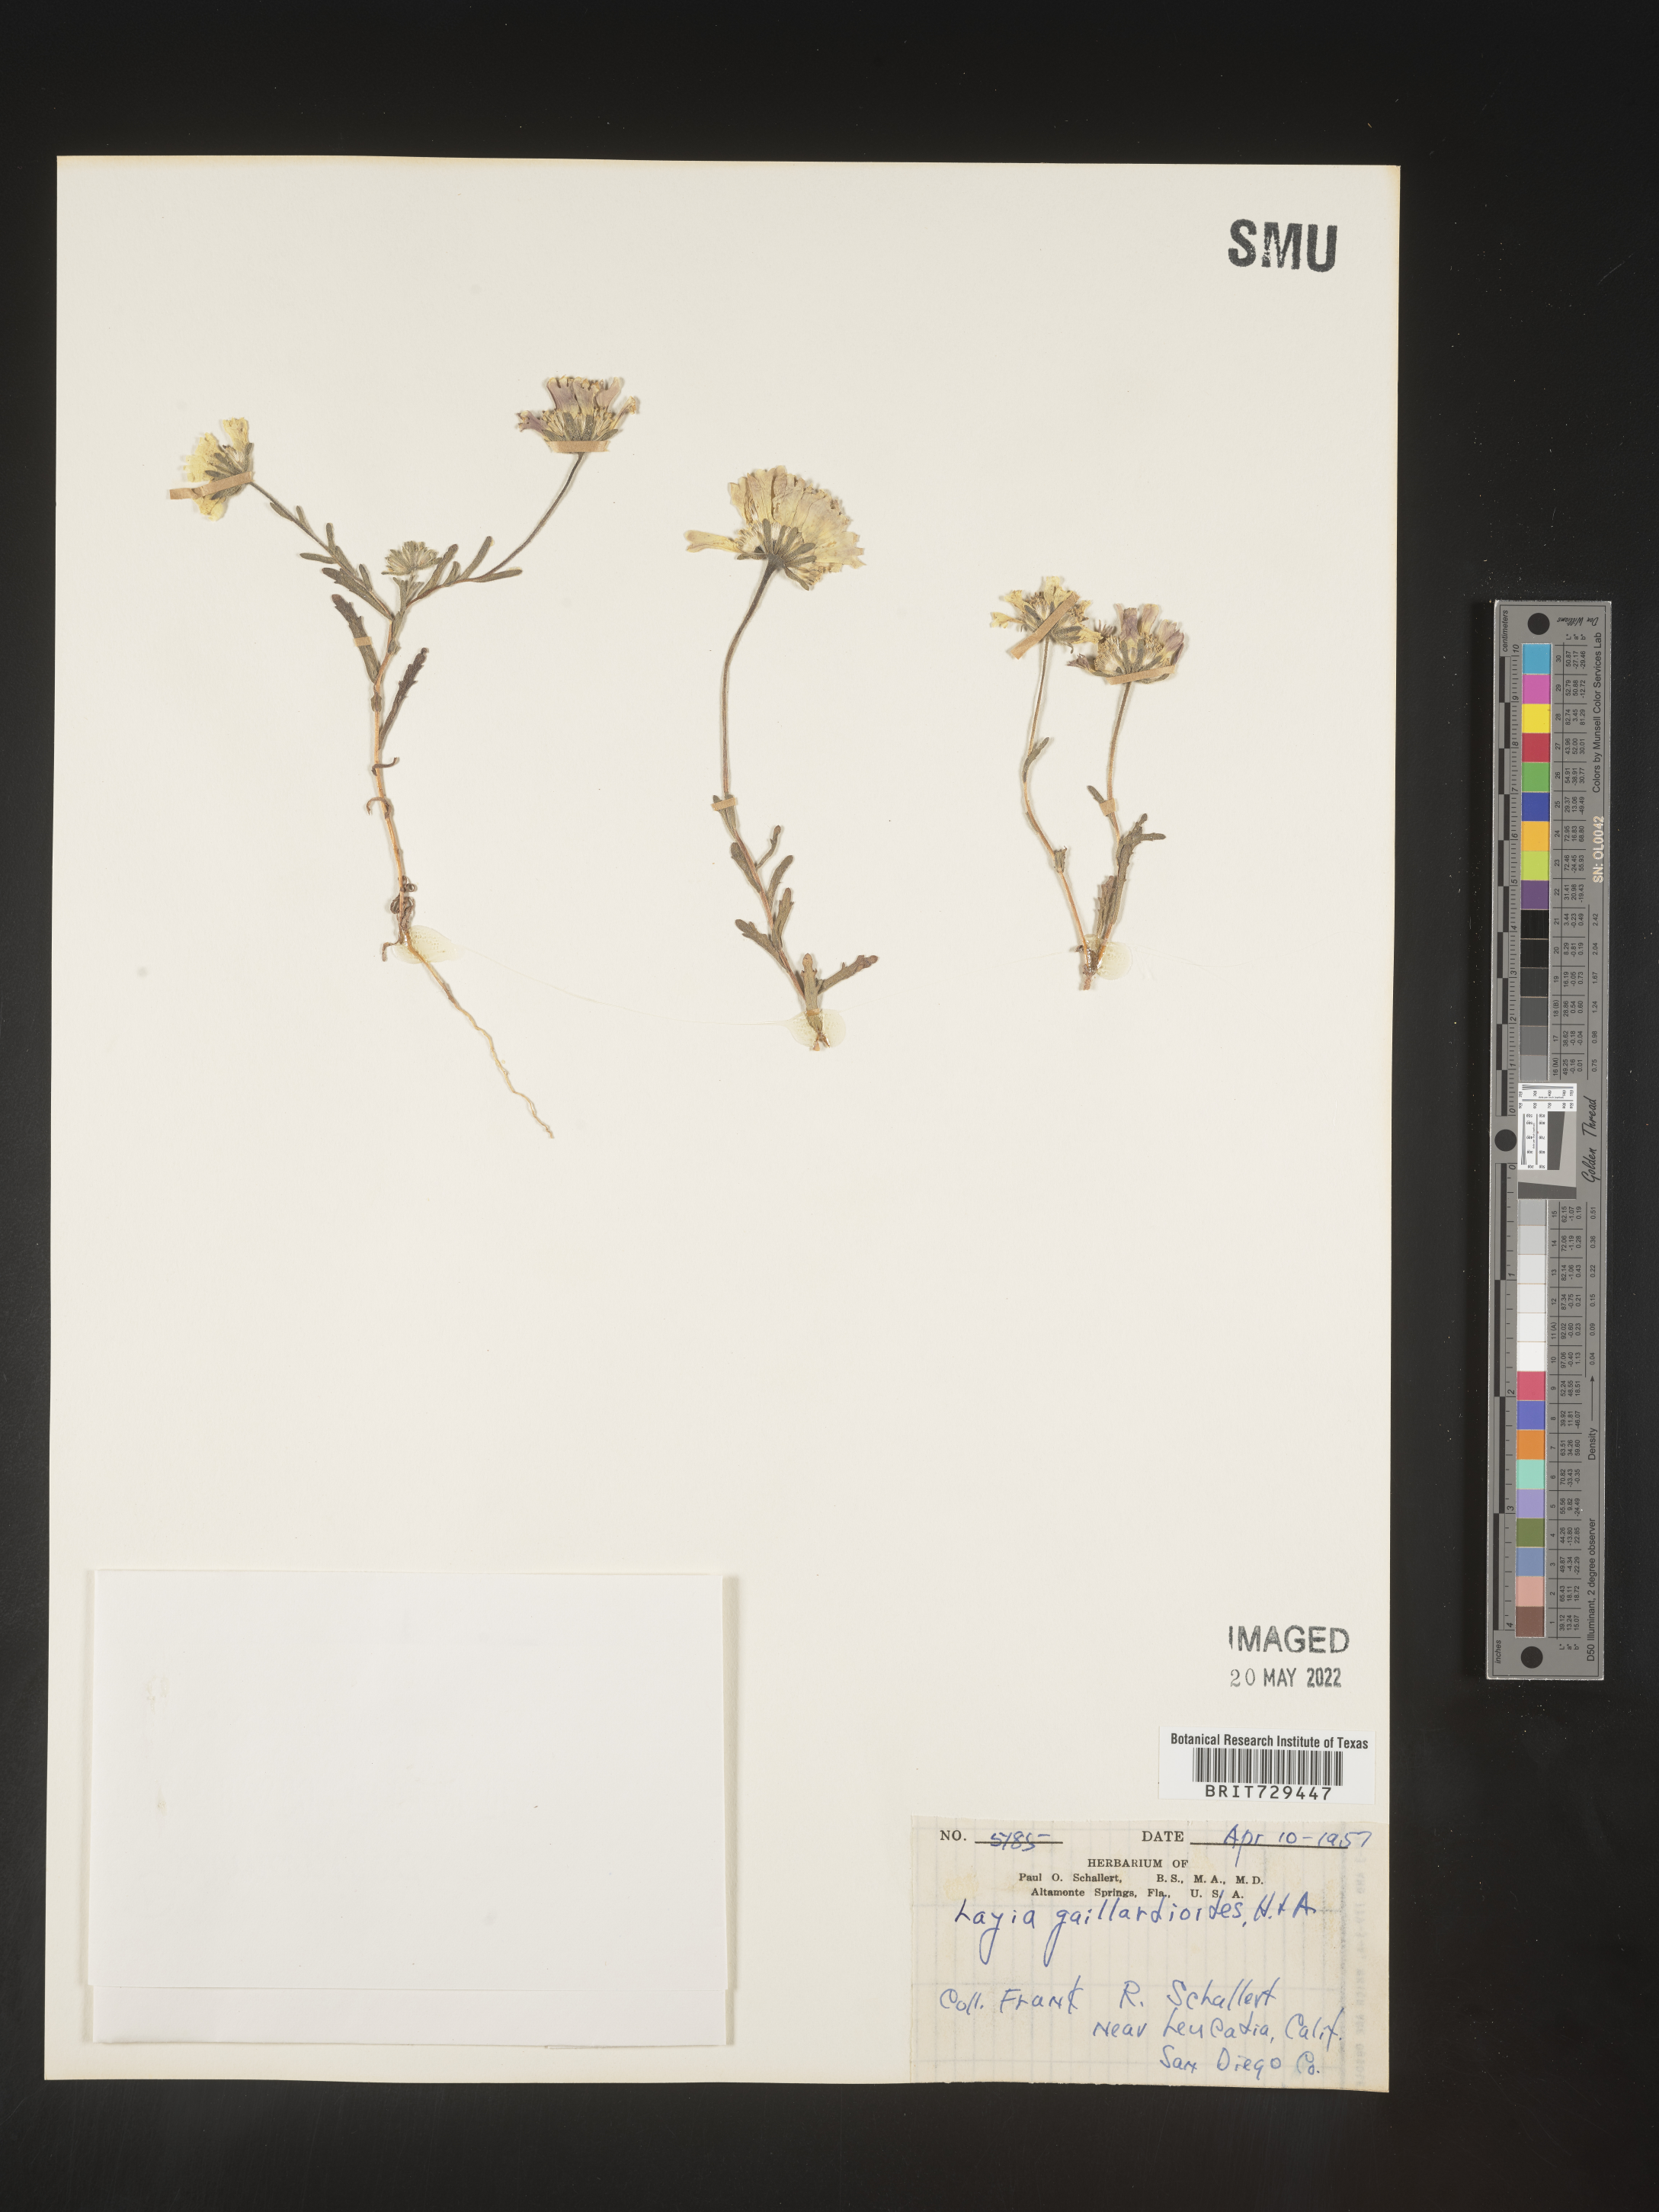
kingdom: Plantae
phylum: Tracheophyta
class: Magnoliopsida
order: Asterales
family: Asteraceae
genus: Layia
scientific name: Layia
